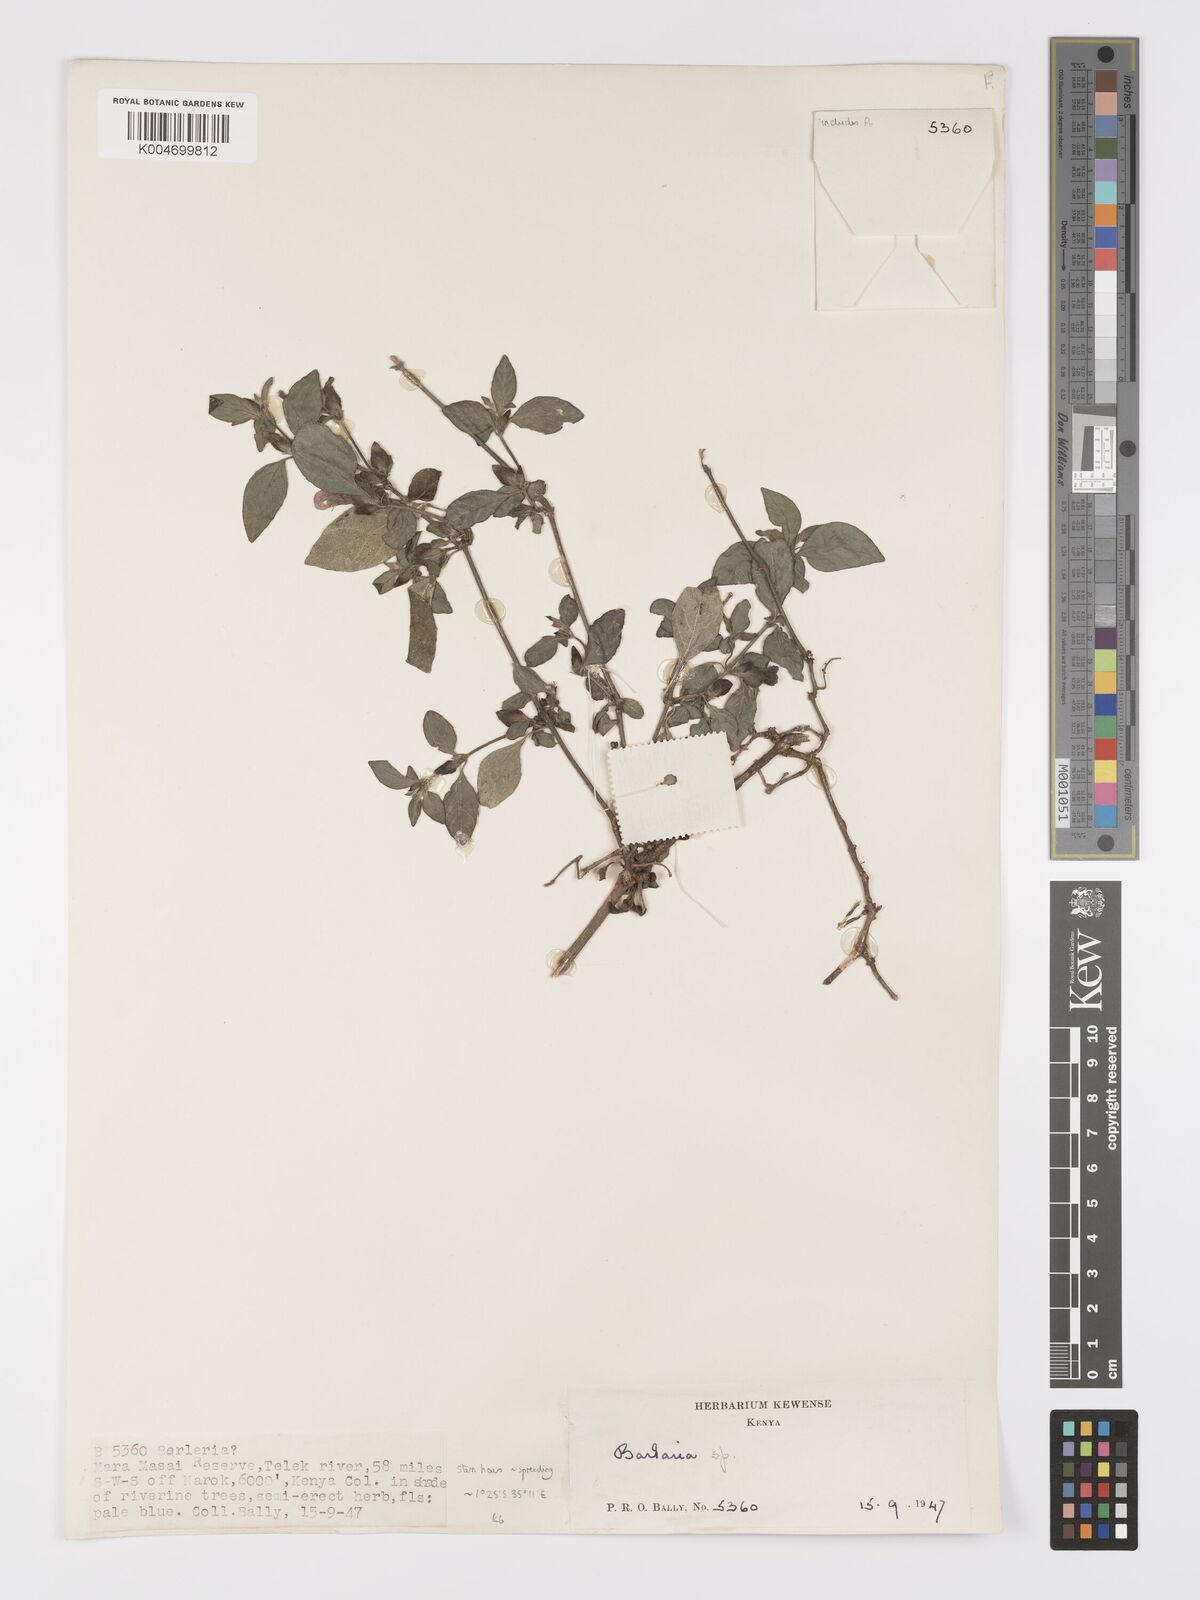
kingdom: Plantae
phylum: Tracheophyta
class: Magnoliopsida
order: Lamiales
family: Acanthaceae
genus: Barleria
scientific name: Barleria ventricosa
